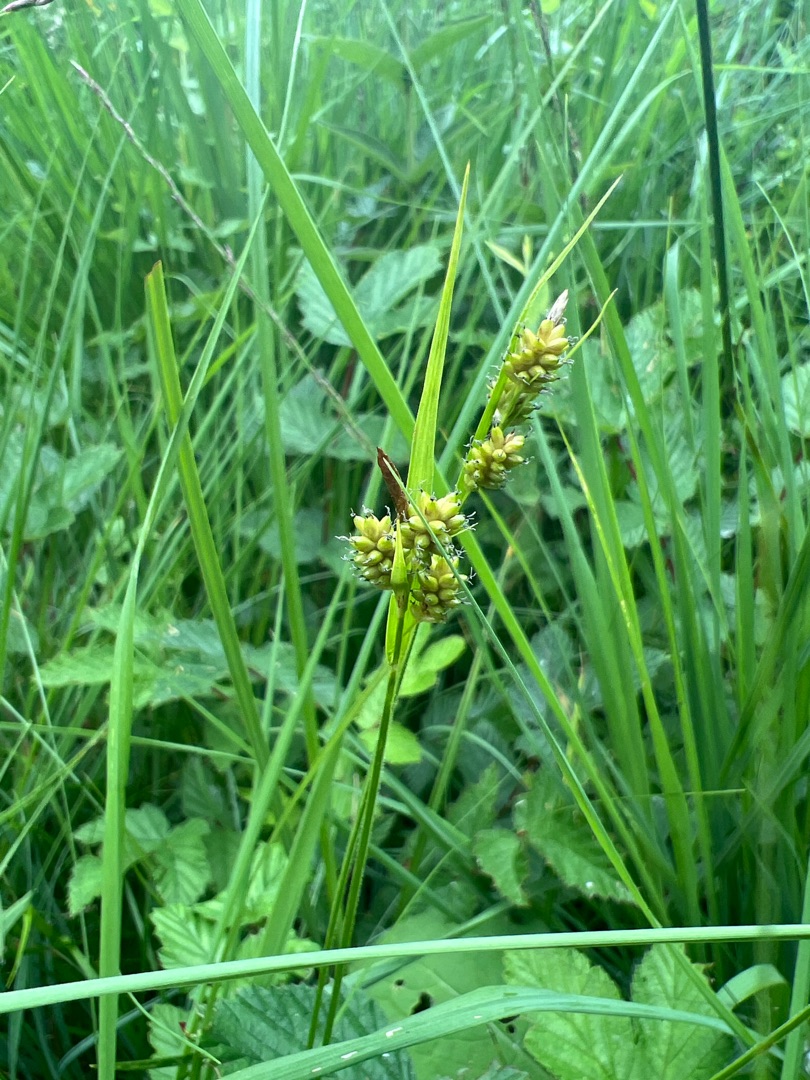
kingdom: Plantae
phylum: Tracheophyta
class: Liliopsida
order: Poales
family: Cyperaceae
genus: Carex
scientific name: Carex pallescens
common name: Bleg star
